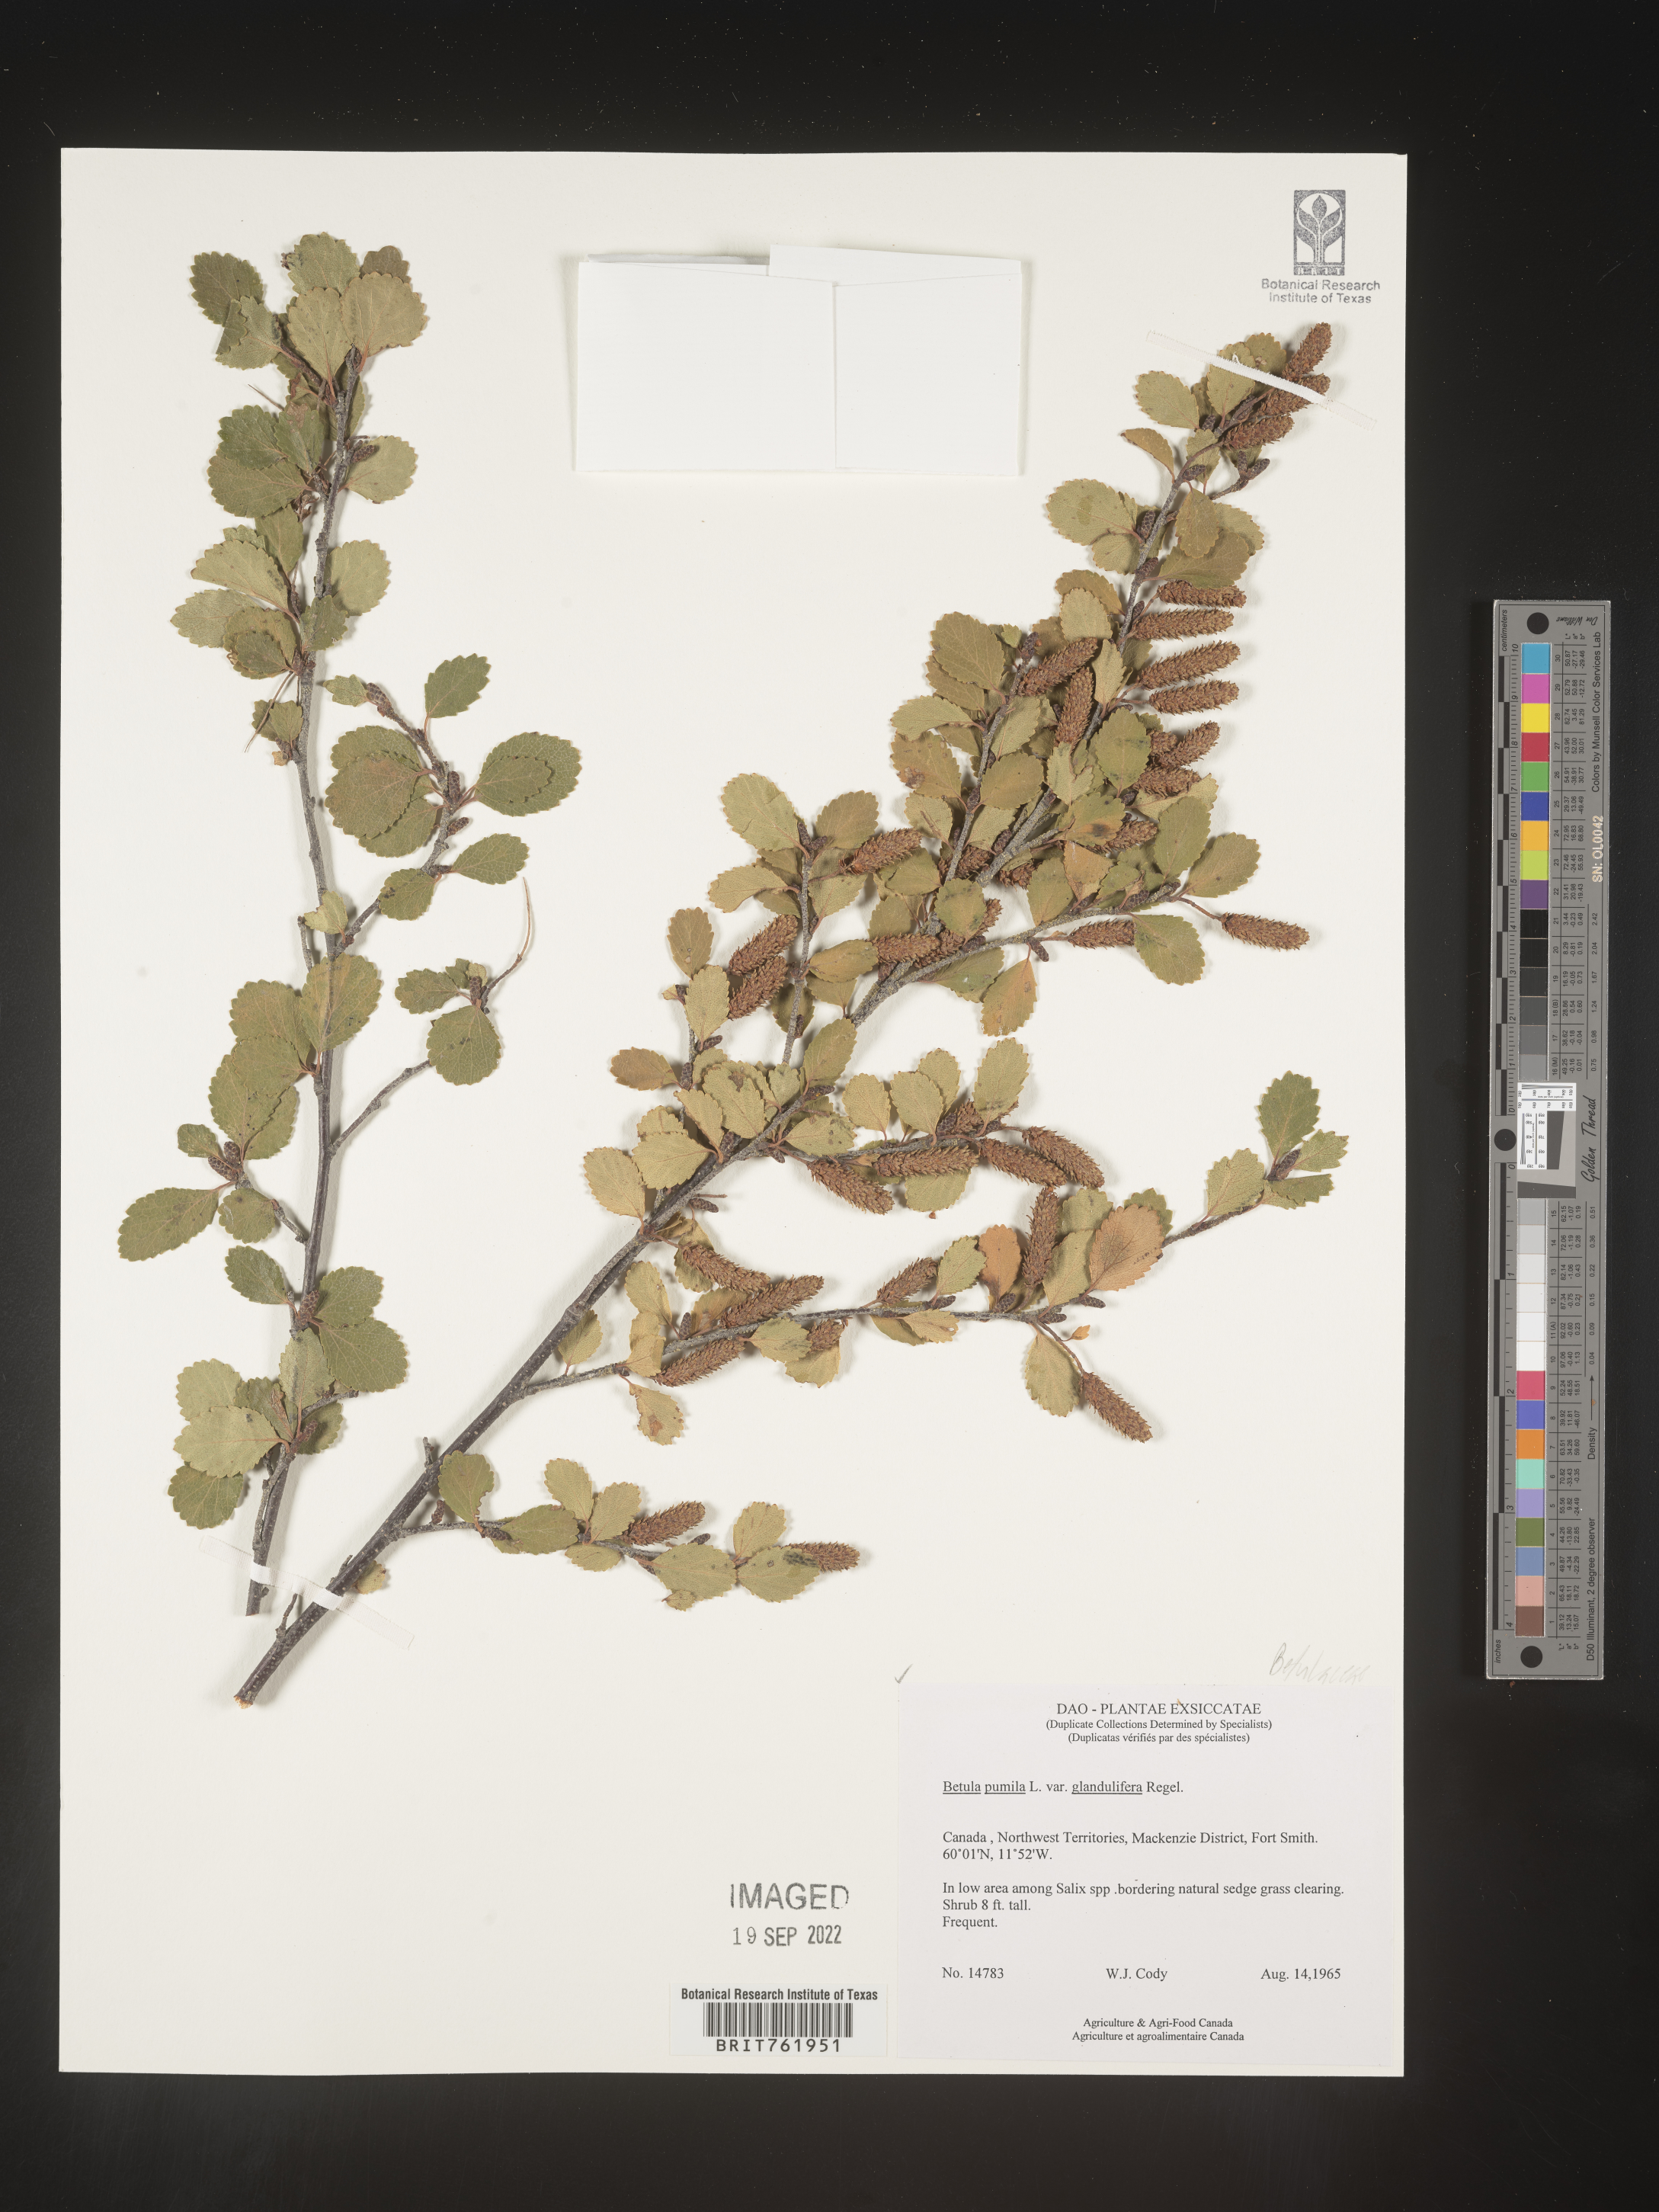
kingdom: Plantae
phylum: Tracheophyta
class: Magnoliopsida
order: Fagales
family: Betulaceae
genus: Betula
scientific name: Betula pumila
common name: Bog birch
